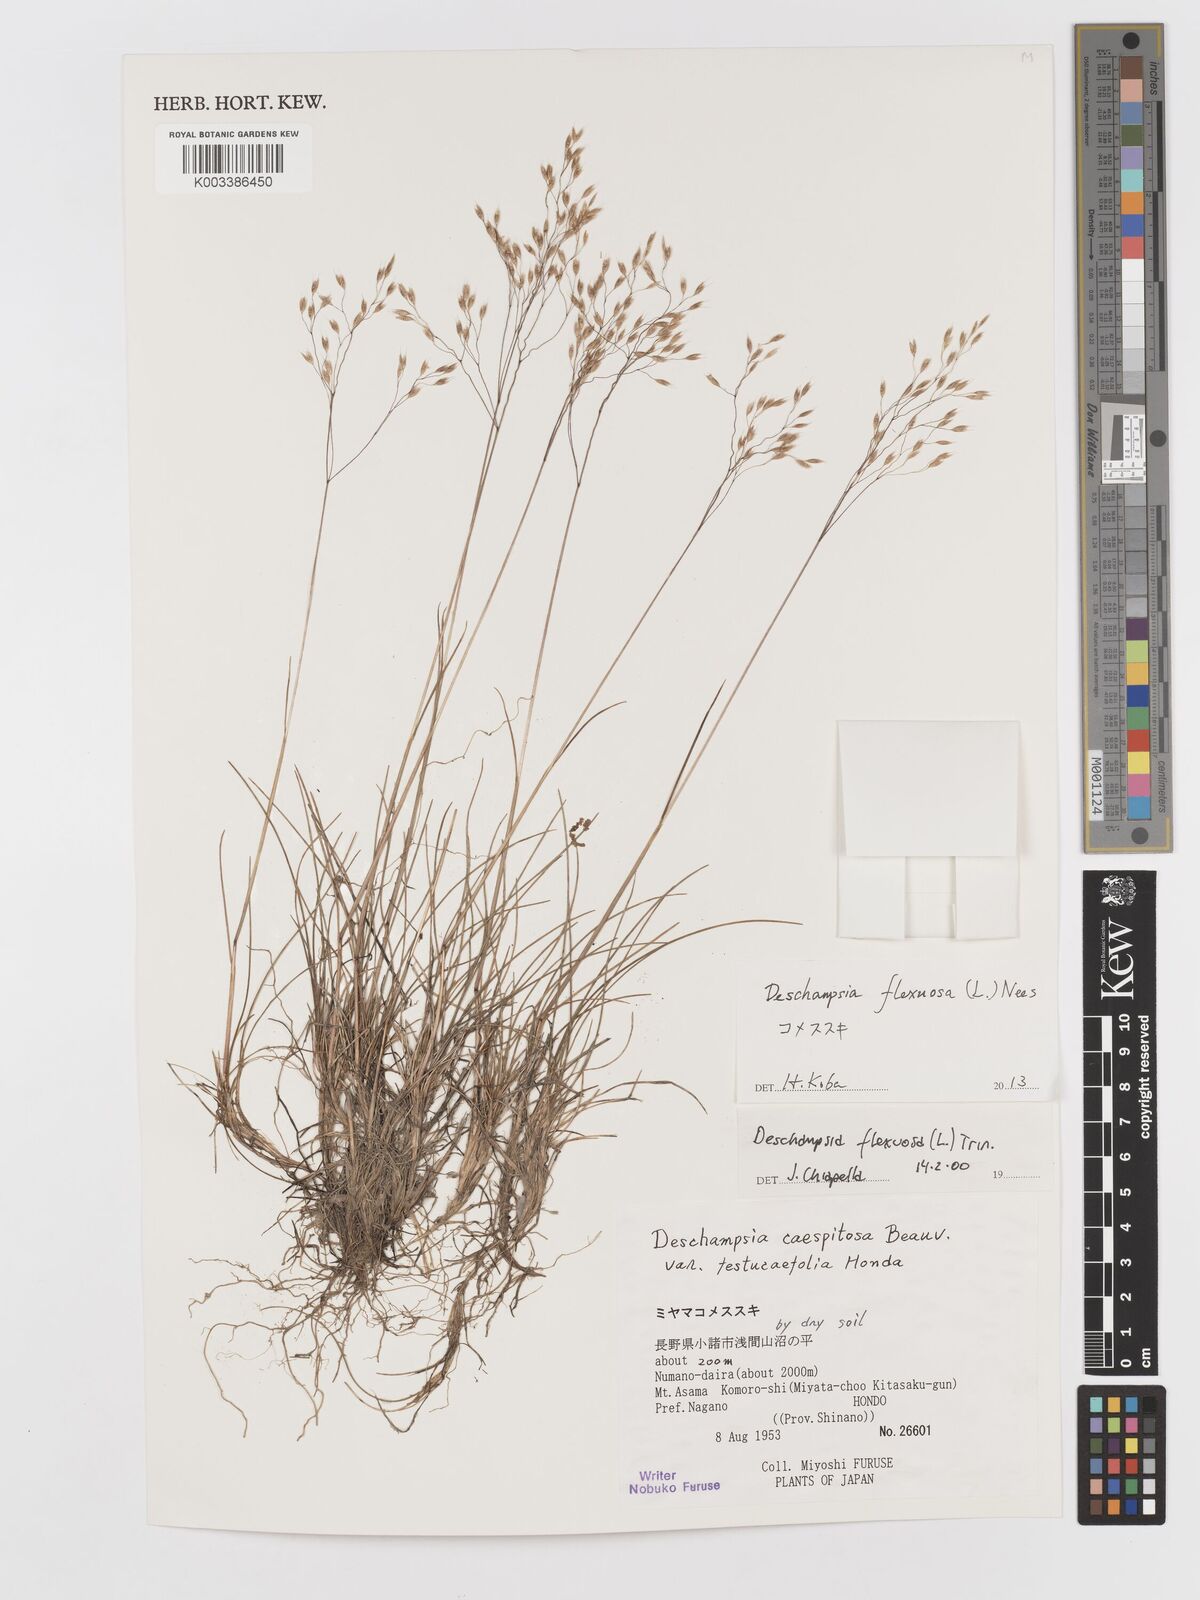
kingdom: Plantae
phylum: Tracheophyta
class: Liliopsida
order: Poales
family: Poaceae
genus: Avenella
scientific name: Avenella flexuosa
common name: Wavy hairgrass
